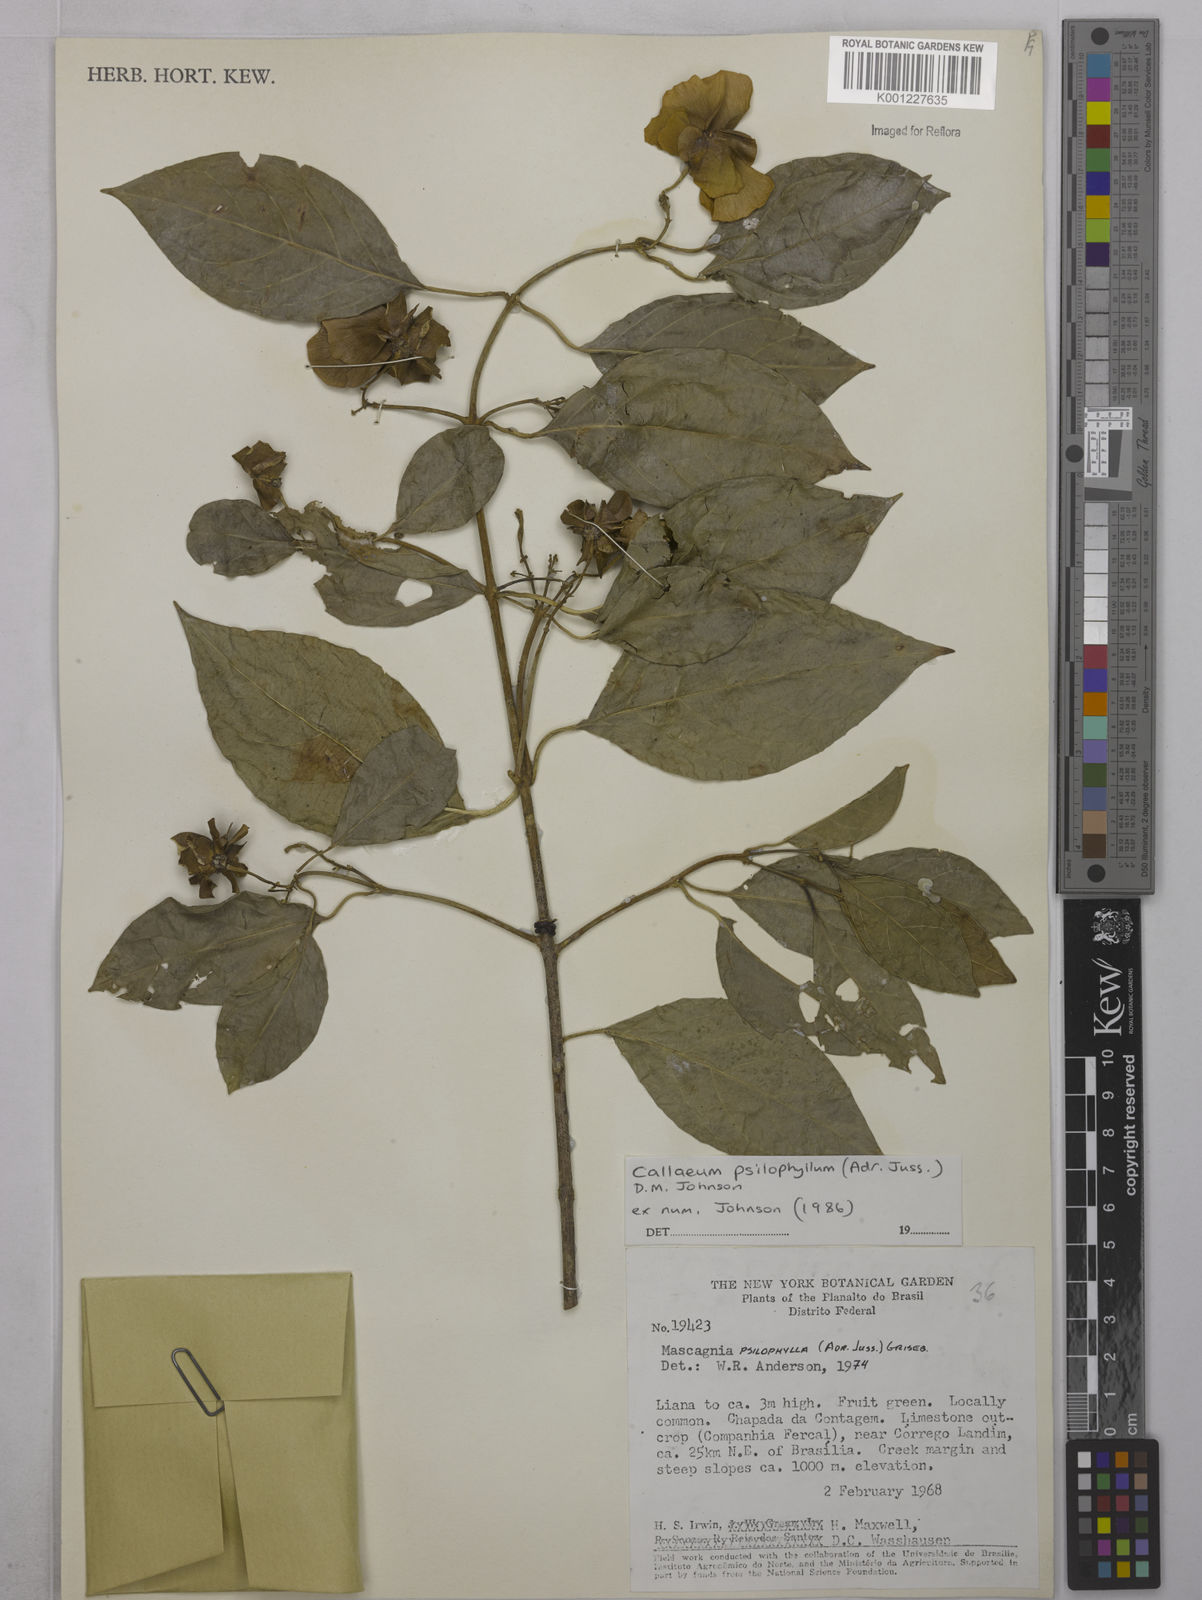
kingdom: Plantae
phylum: Tracheophyta
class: Magnoliopsida
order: Malpighiales
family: Malpighiaceae
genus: Callaeum
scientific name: Callaeum psilophyllum
